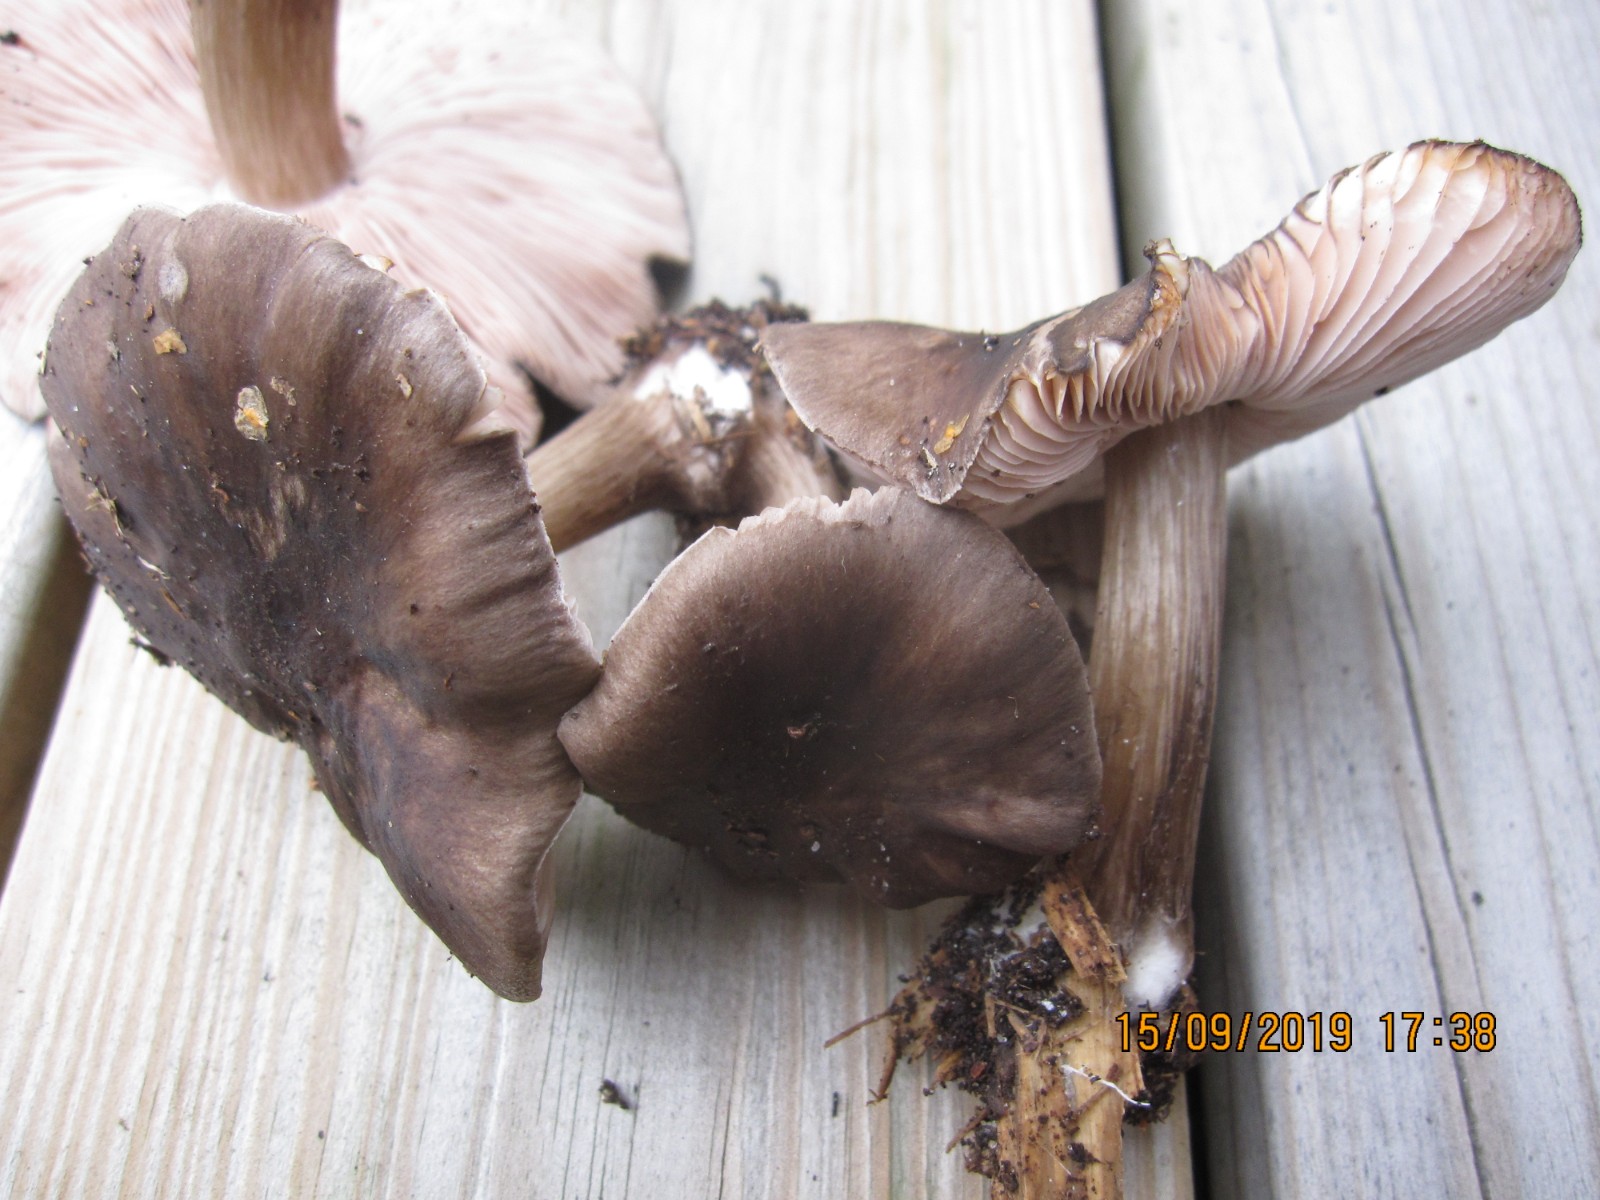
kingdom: Fungi
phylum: Basidiomycota
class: Agaricomycetes
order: Agaricales
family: Pluteaceae
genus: Pluteus
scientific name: Pluteus pouzarianus
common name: plantage-skærmhat
